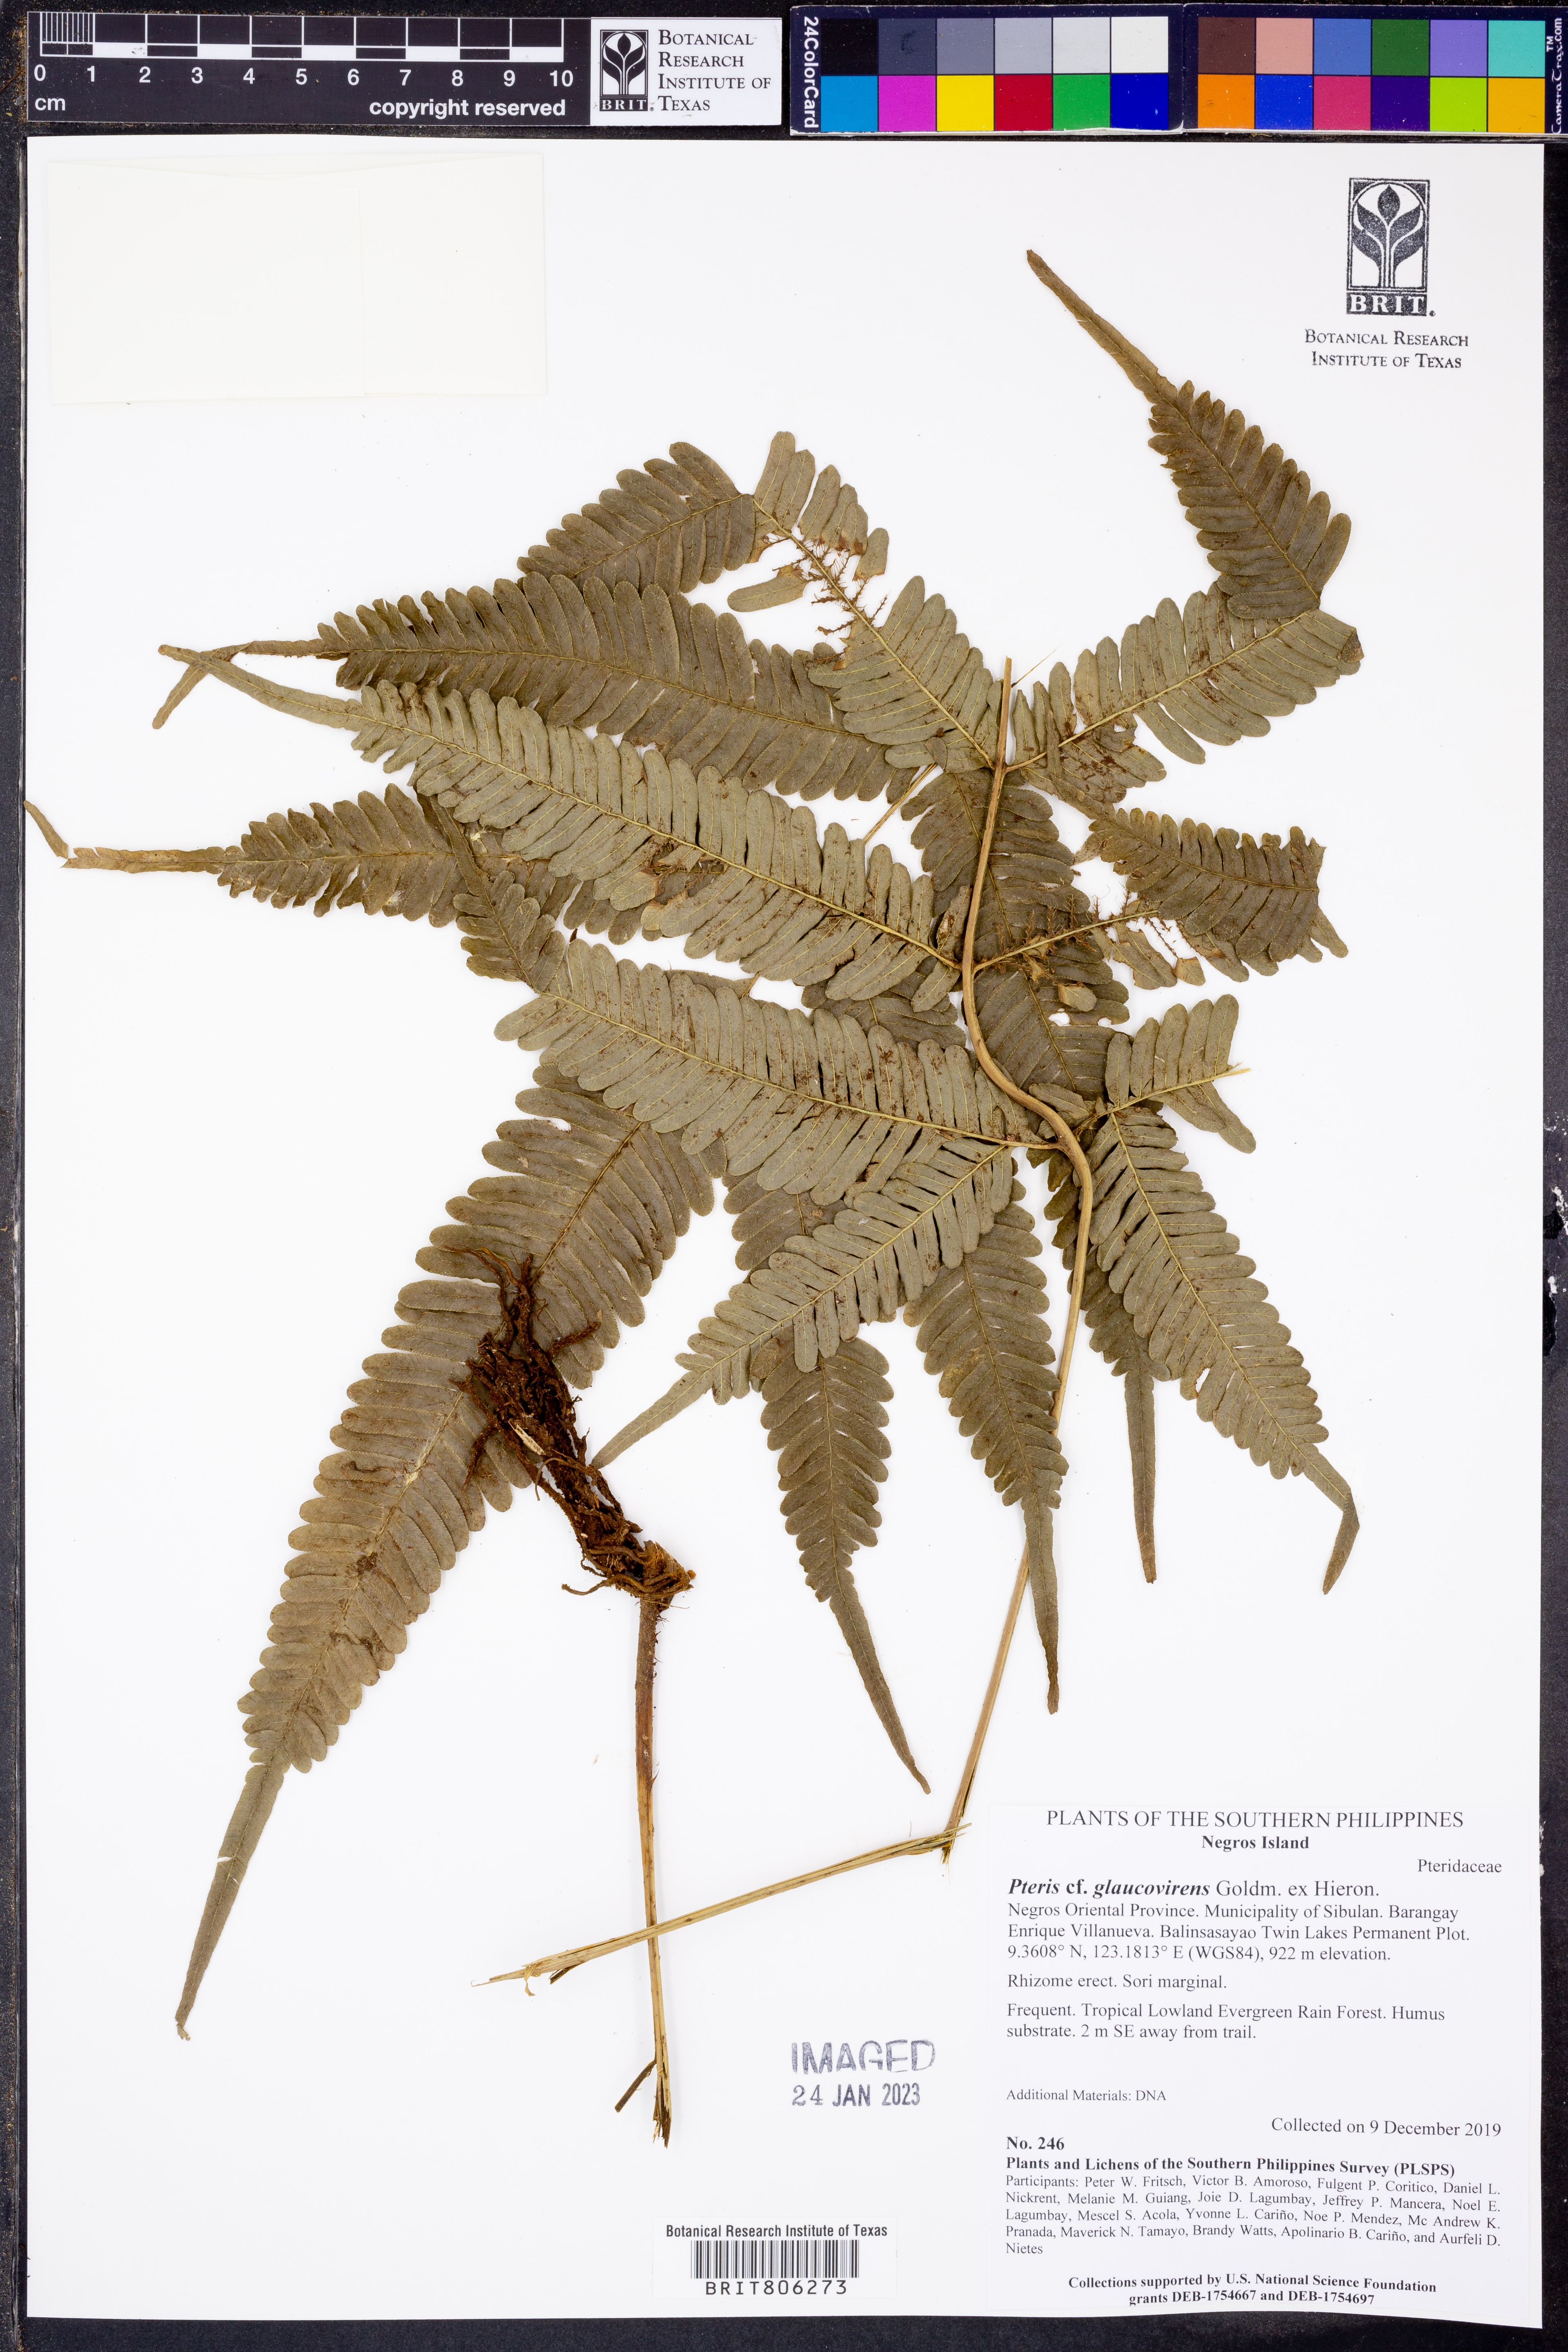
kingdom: Plantae
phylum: Tracheophyta
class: Polypodiopsida
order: Polypodiales
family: Pteridaceae
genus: Pteris
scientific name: Pteris glaucovirens
